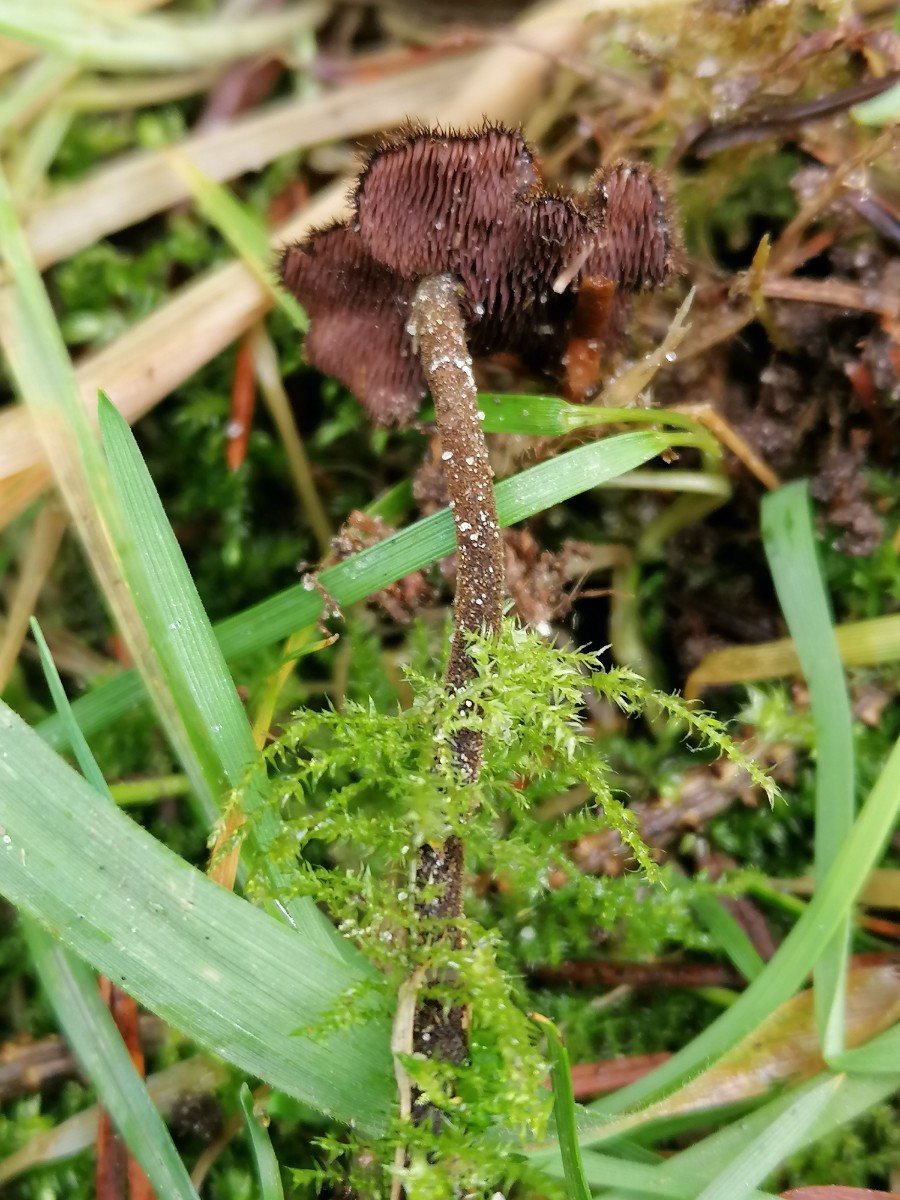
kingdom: Fungi
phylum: Basidiomycota
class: Agaricomycetes
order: Russulales
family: Auriscalpiaceae
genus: Auriscalpium
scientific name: Auriscalpium vulgare
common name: koglepigsvamp
